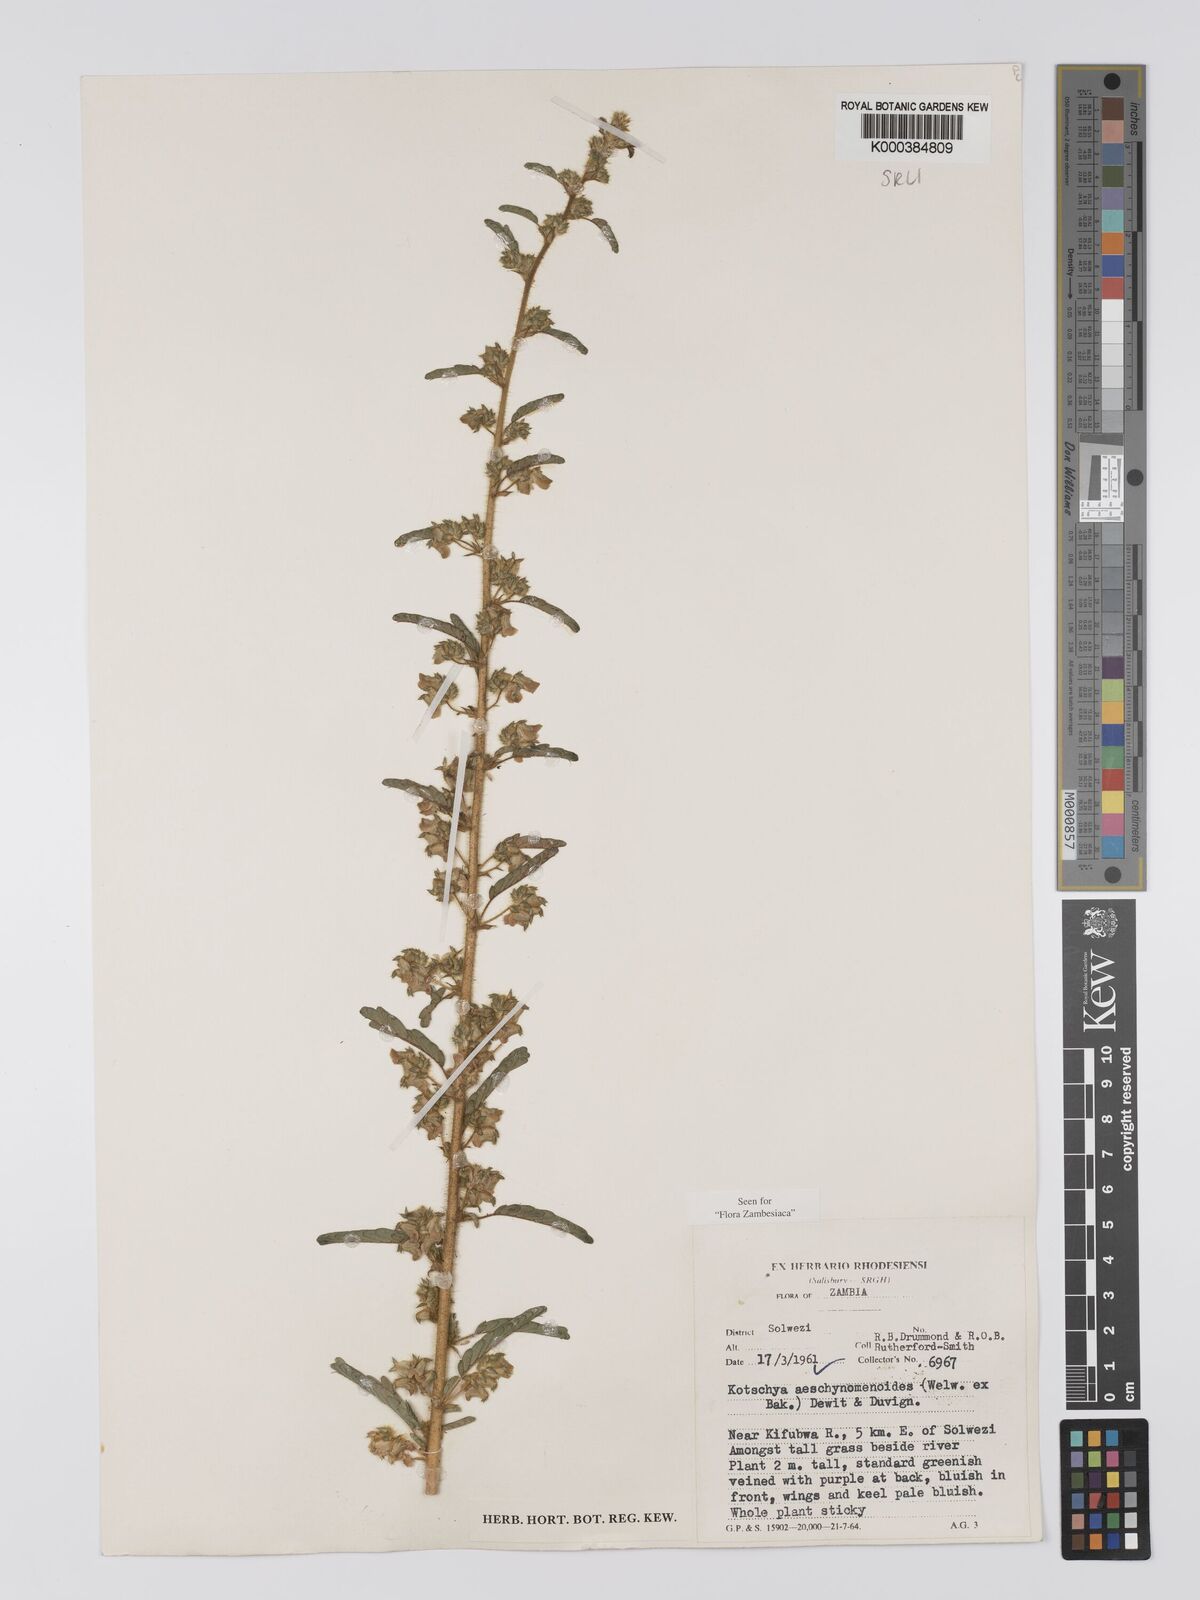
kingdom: Plantae
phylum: Tracheophyta
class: Magnoliopsida
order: Fabales
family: Fabaceae
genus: Kotschya
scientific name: Kotschya aeschynomenoides
